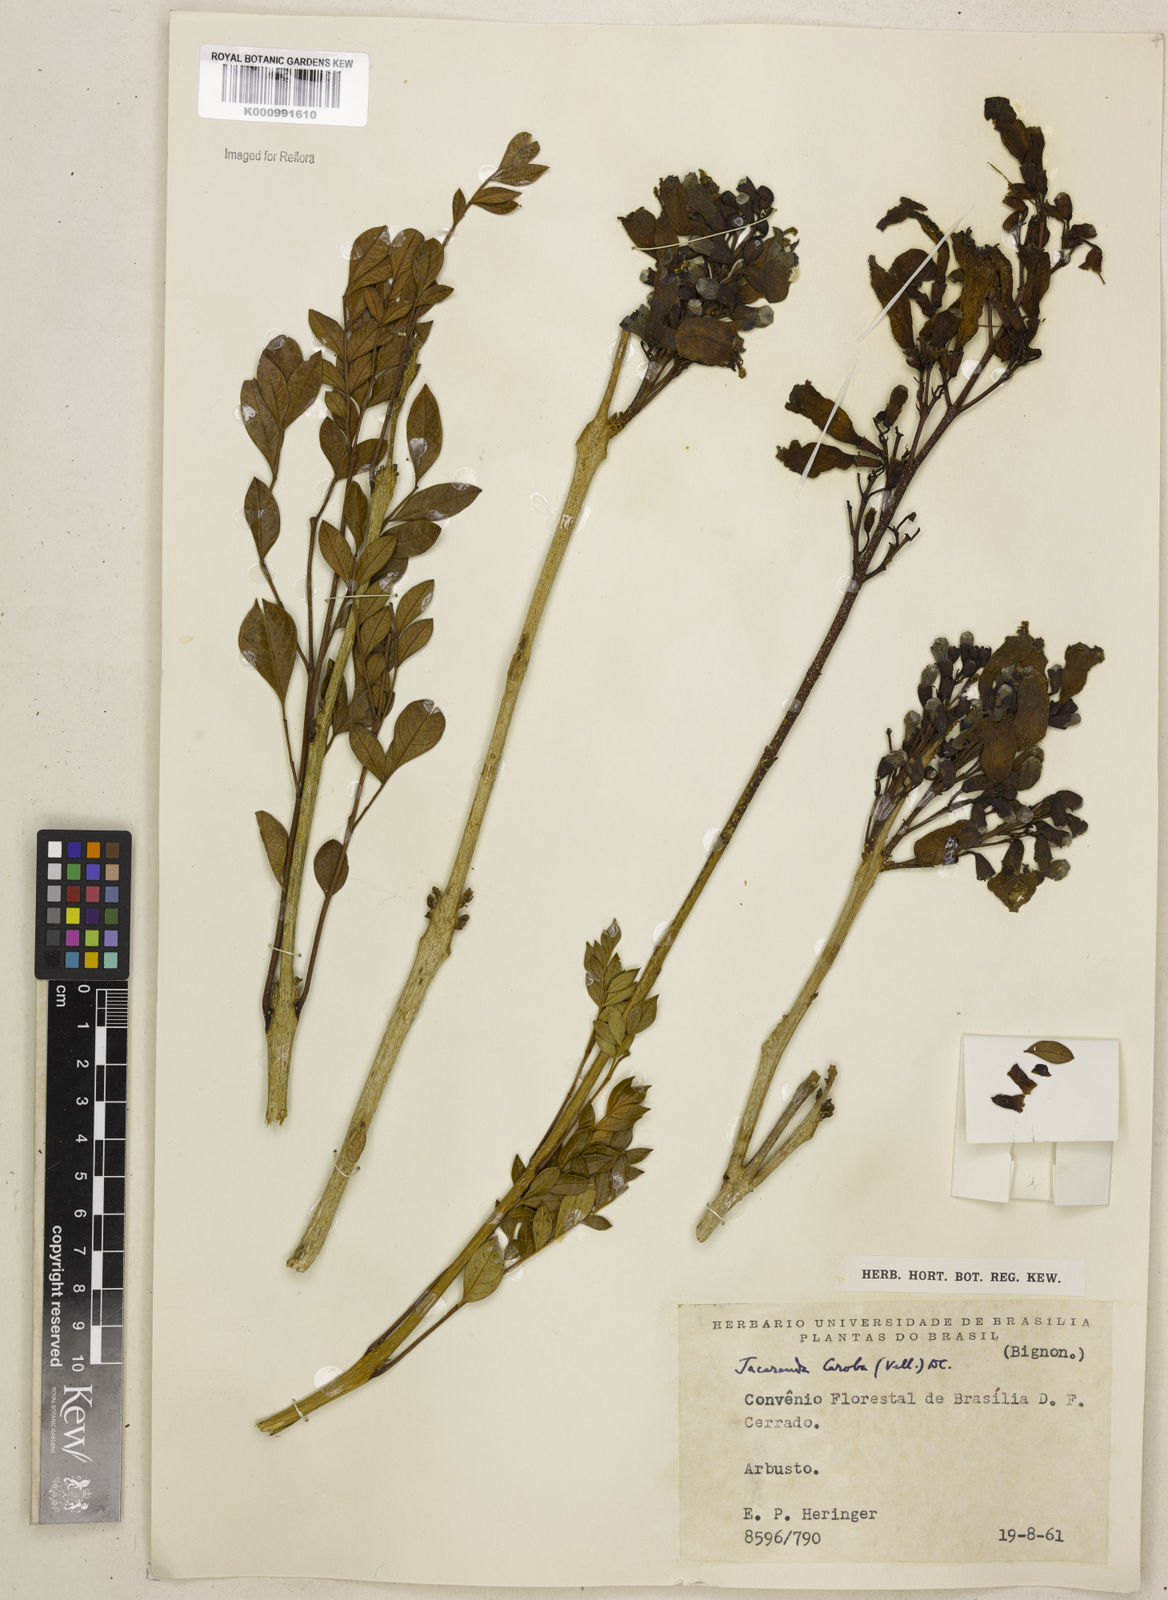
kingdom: Plantae
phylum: Tracheophyta
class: Magnoliopsida
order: Lamiales
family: Bignoniaceae
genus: Jacaranda
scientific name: Jacaranda caroba
